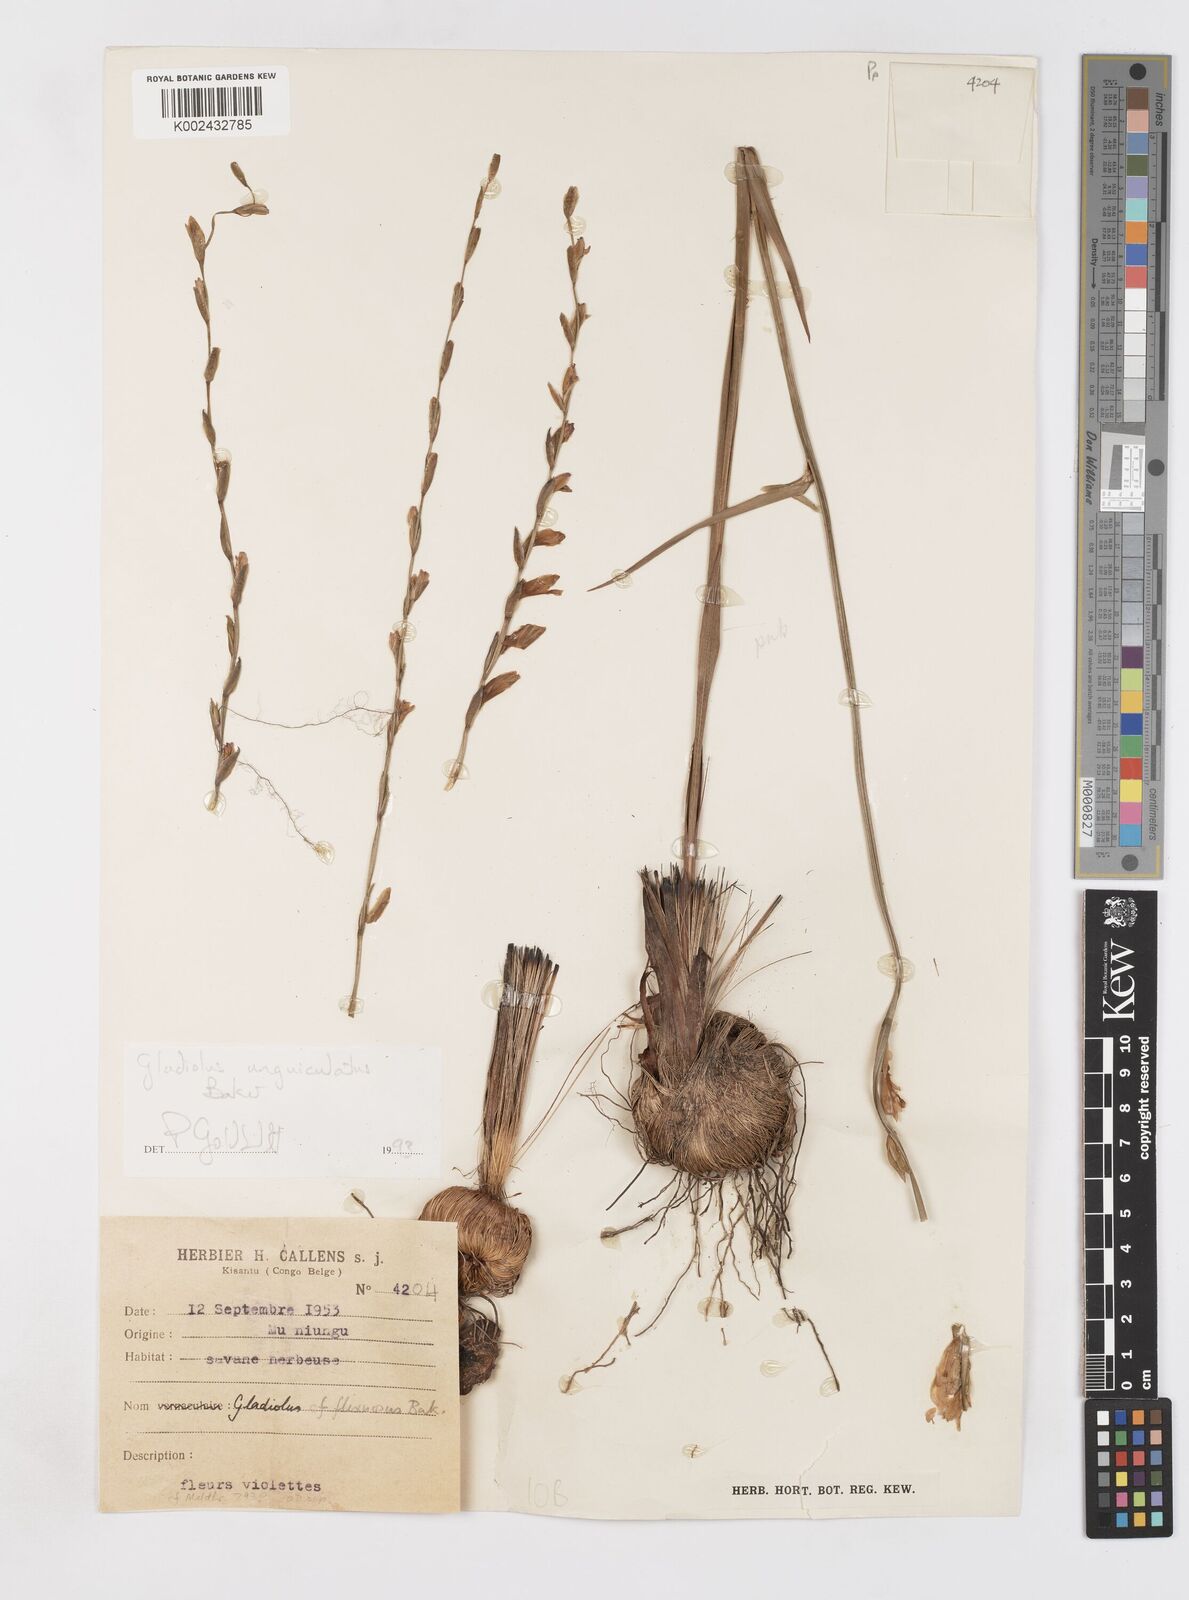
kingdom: Plantae
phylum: Tracheophyta
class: Liliopsida
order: Asparagales
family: Iridaceae
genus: Gladiolus
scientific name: Gladiolus unguiculatus
